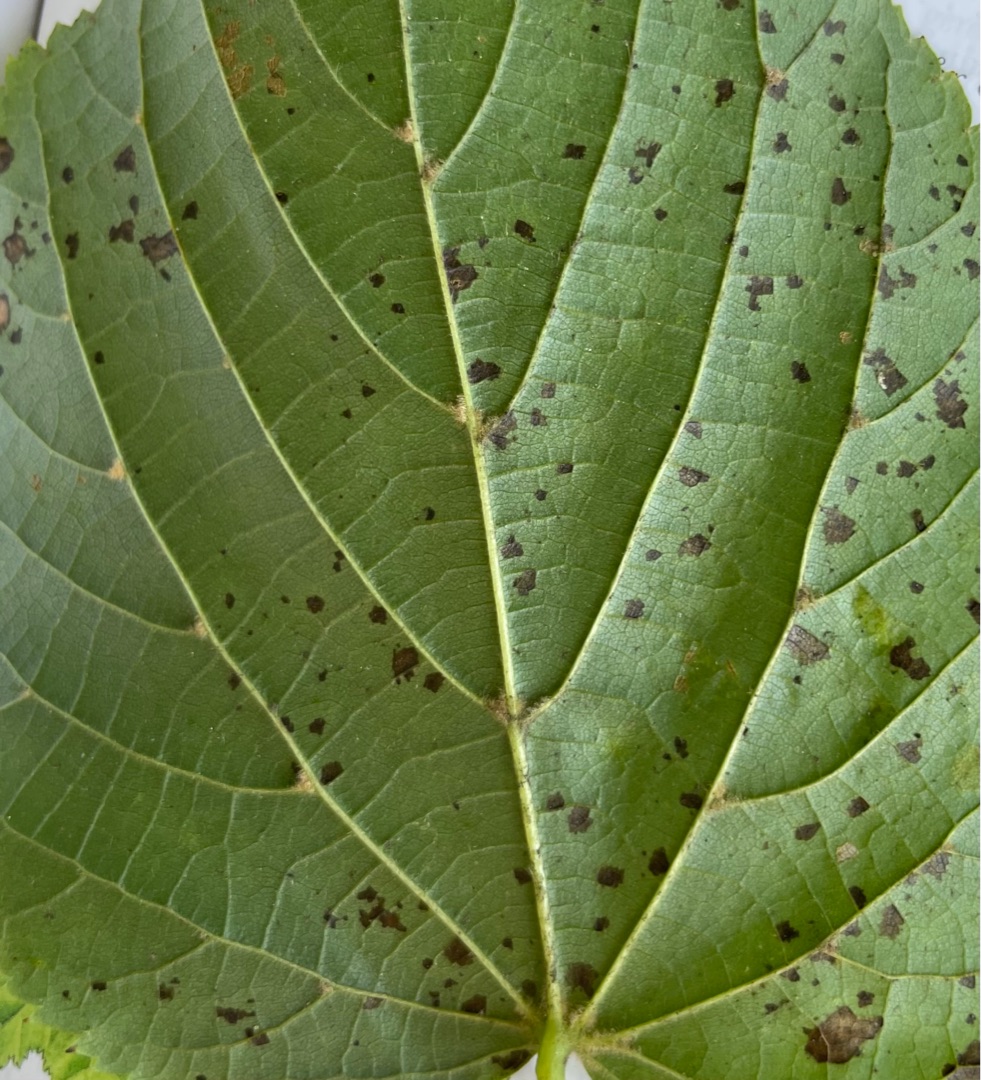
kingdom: Plantae
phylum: Tracheophyta
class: Magnoliopsida
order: Malvales
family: Malvaceae
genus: Tilia
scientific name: Tilia europaea
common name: Park-lind
